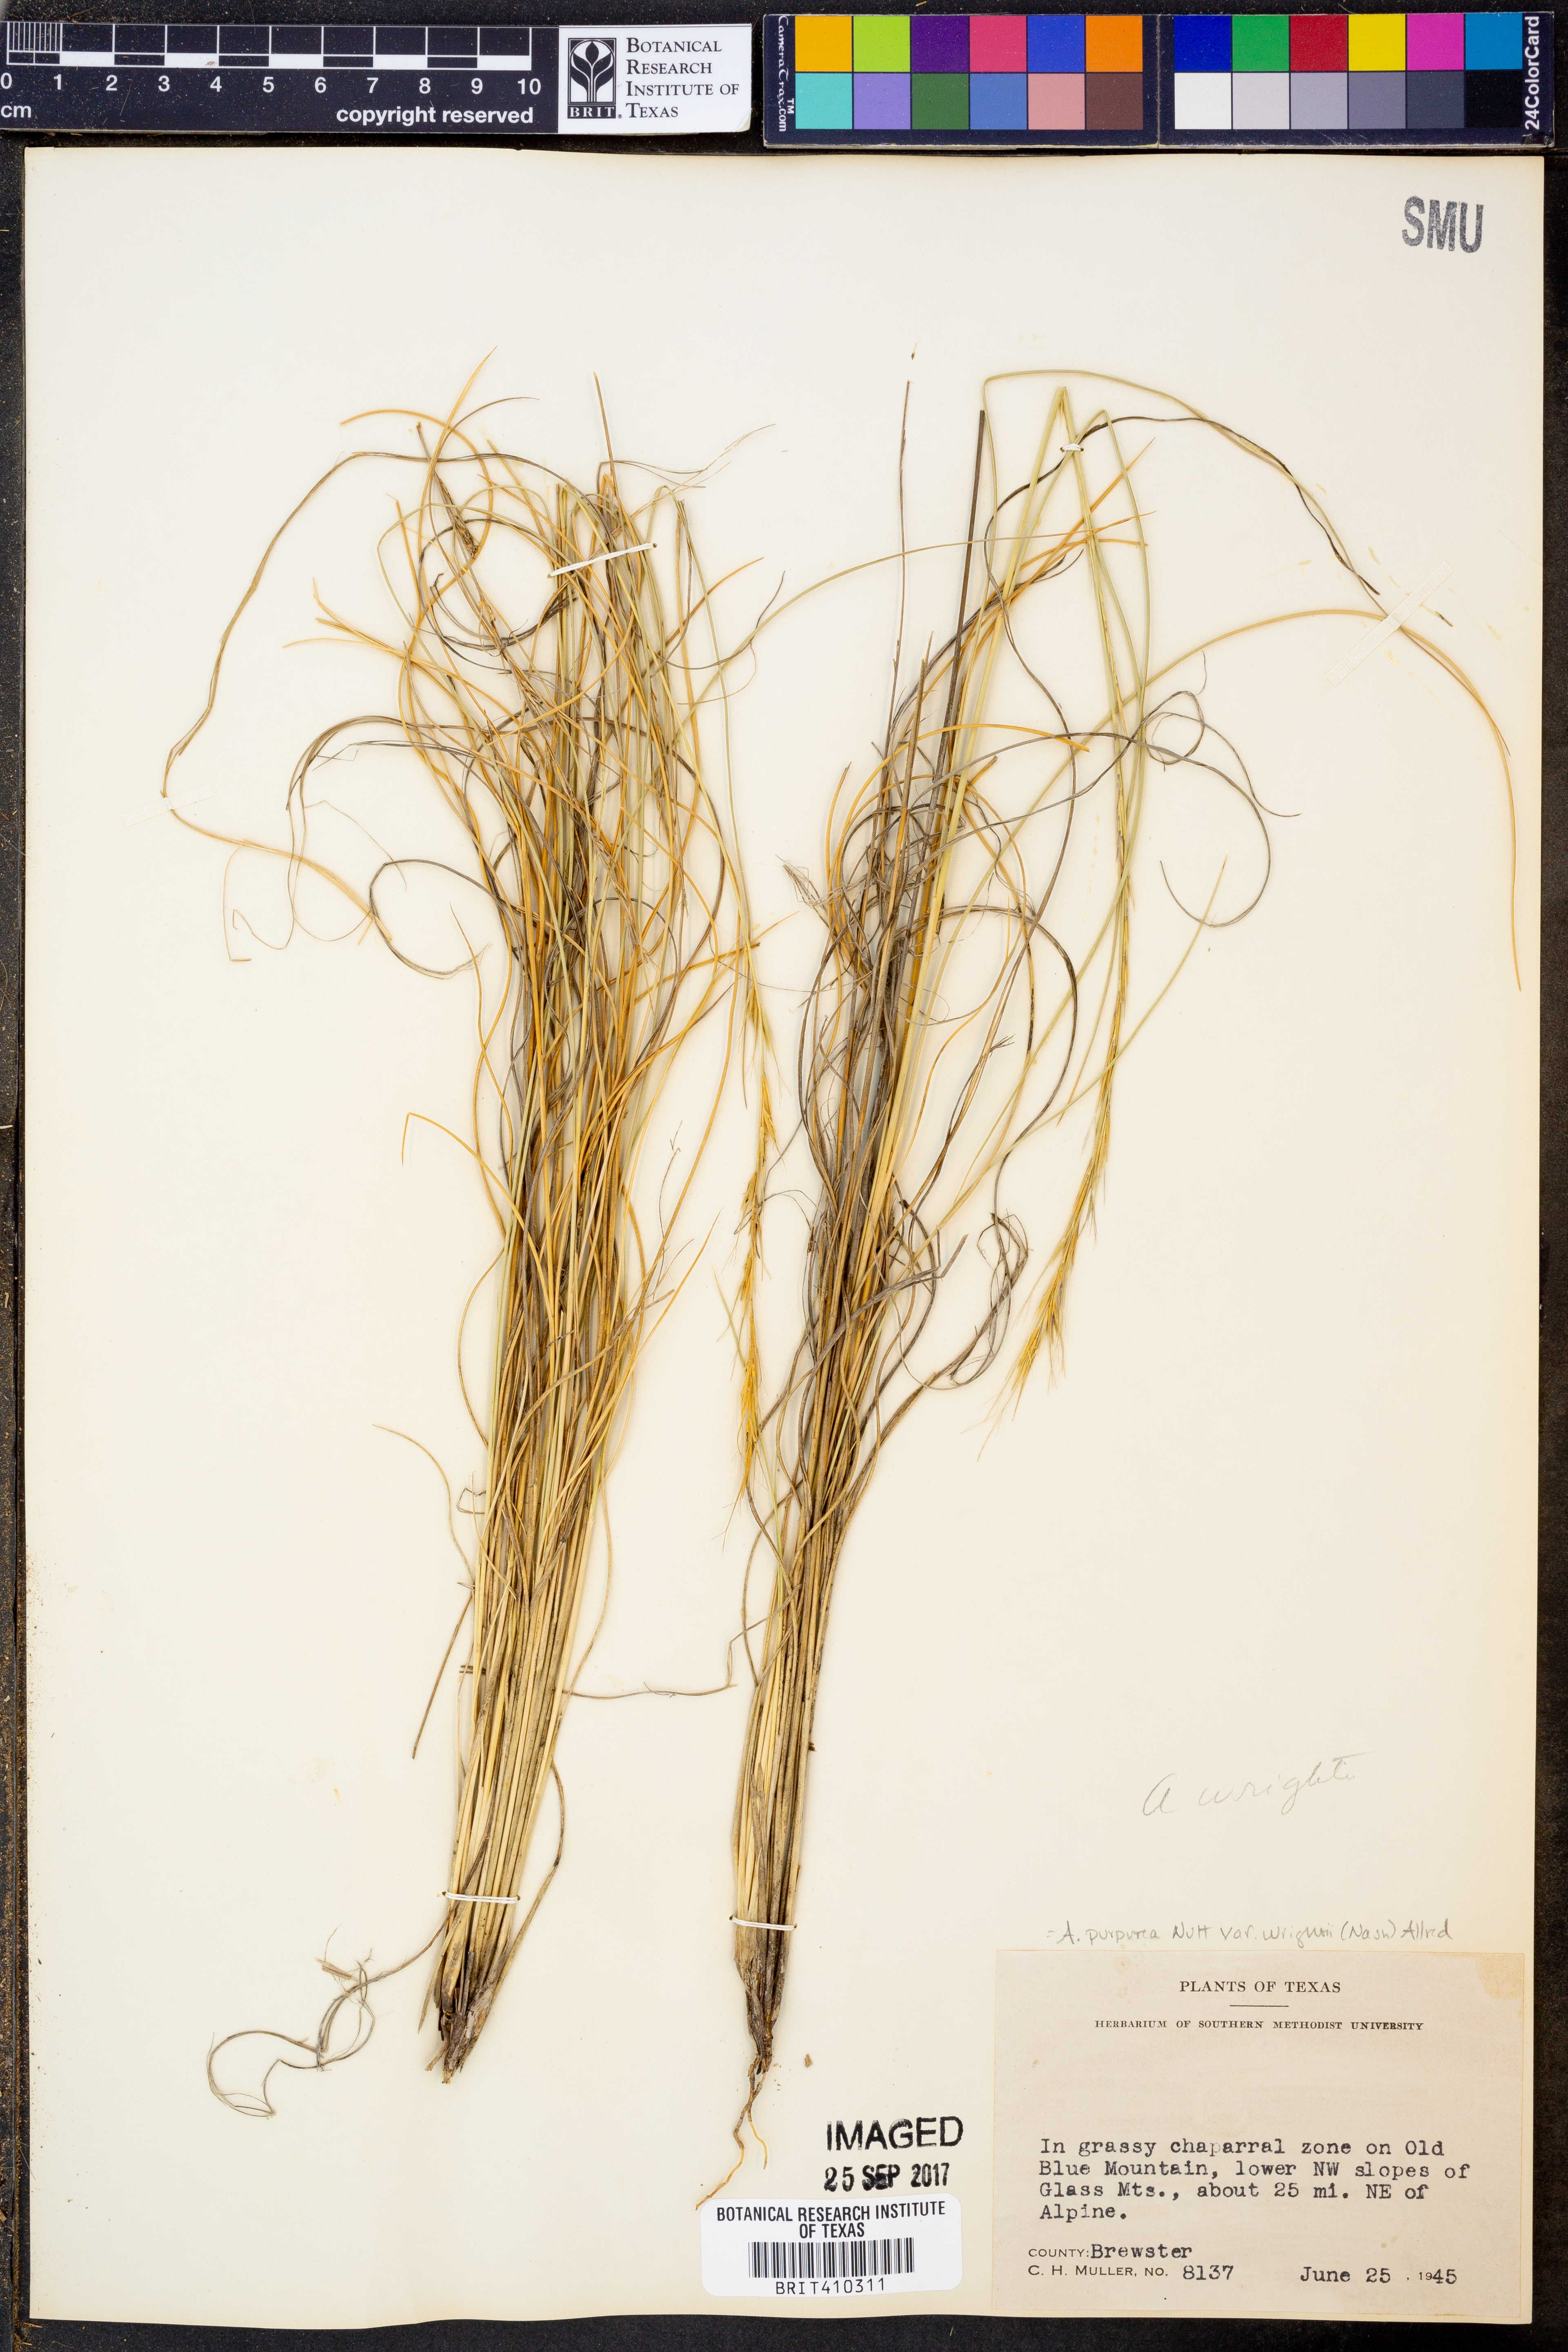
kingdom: Plantae
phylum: Tracheophyta
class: Liliopsida
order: Poales
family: Poaceae
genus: Aristida
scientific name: Aristida wrightii
